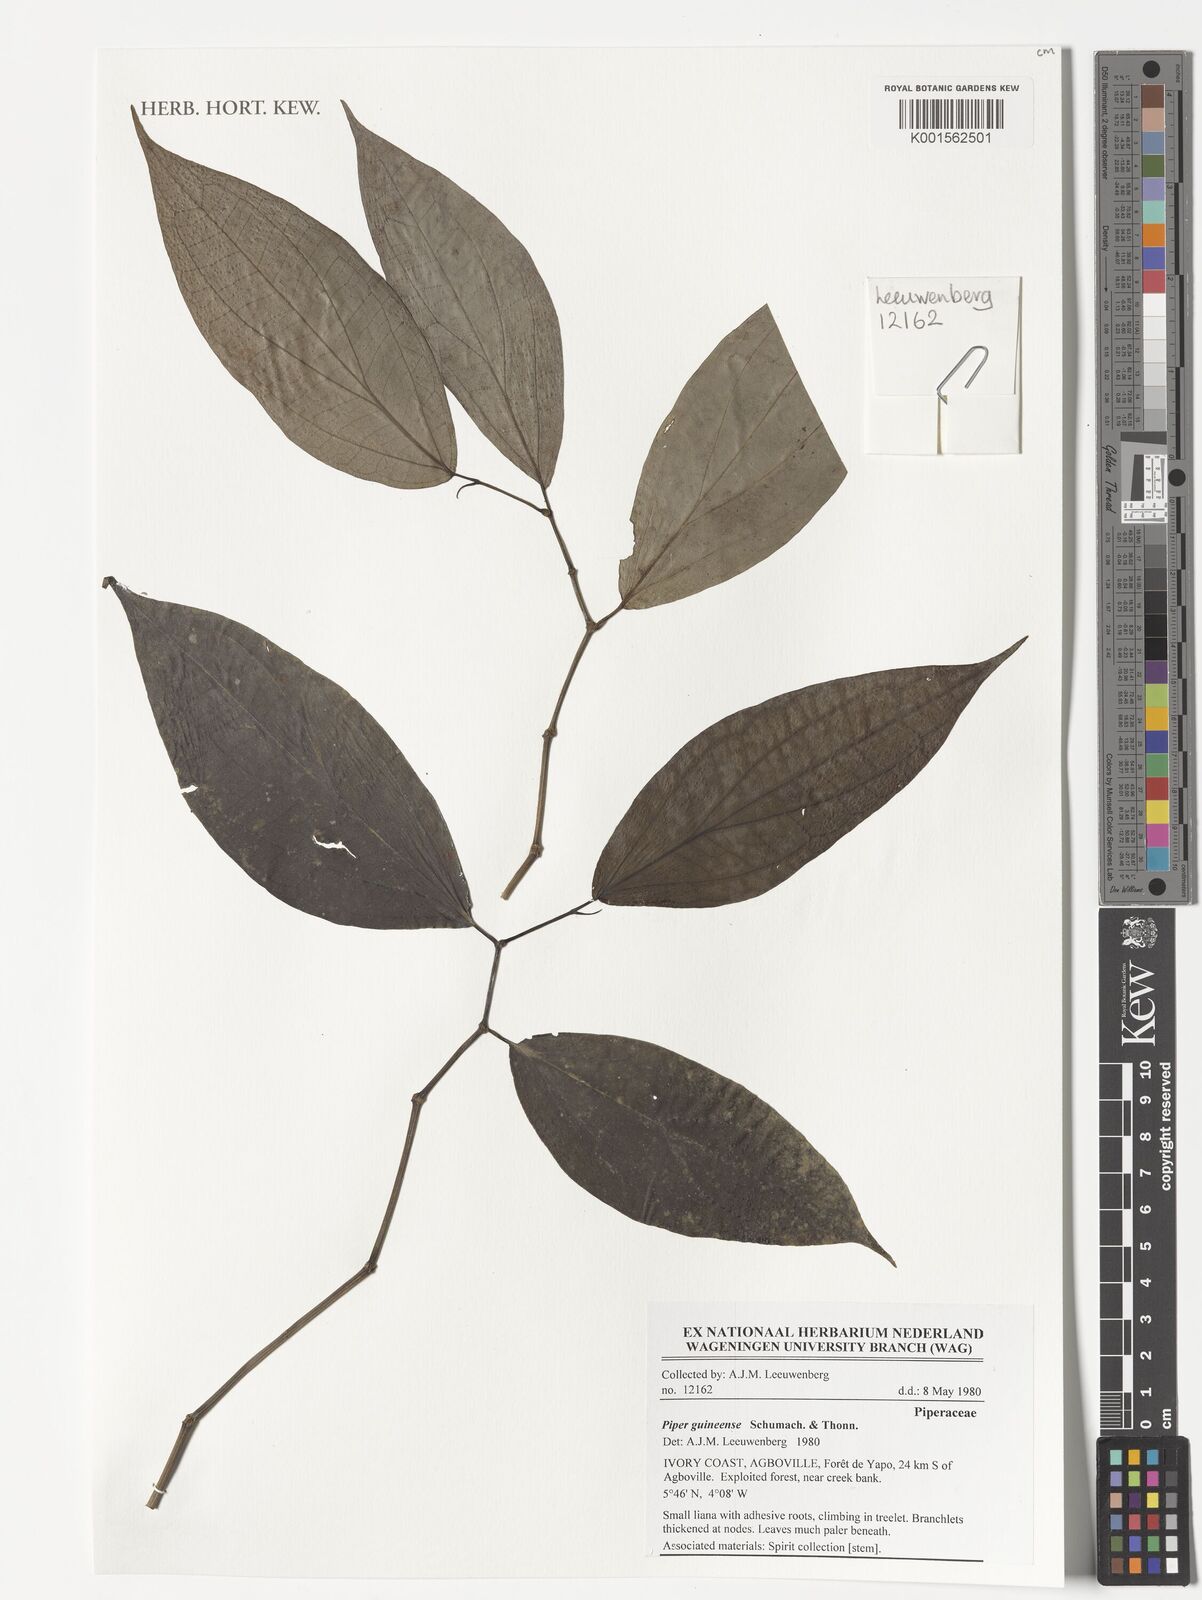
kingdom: Plantae
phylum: Tracheophyta
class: Magnoliopsida
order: Piperales
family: Piperaceae
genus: Piper
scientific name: Piper guineense
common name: Benin pepper
